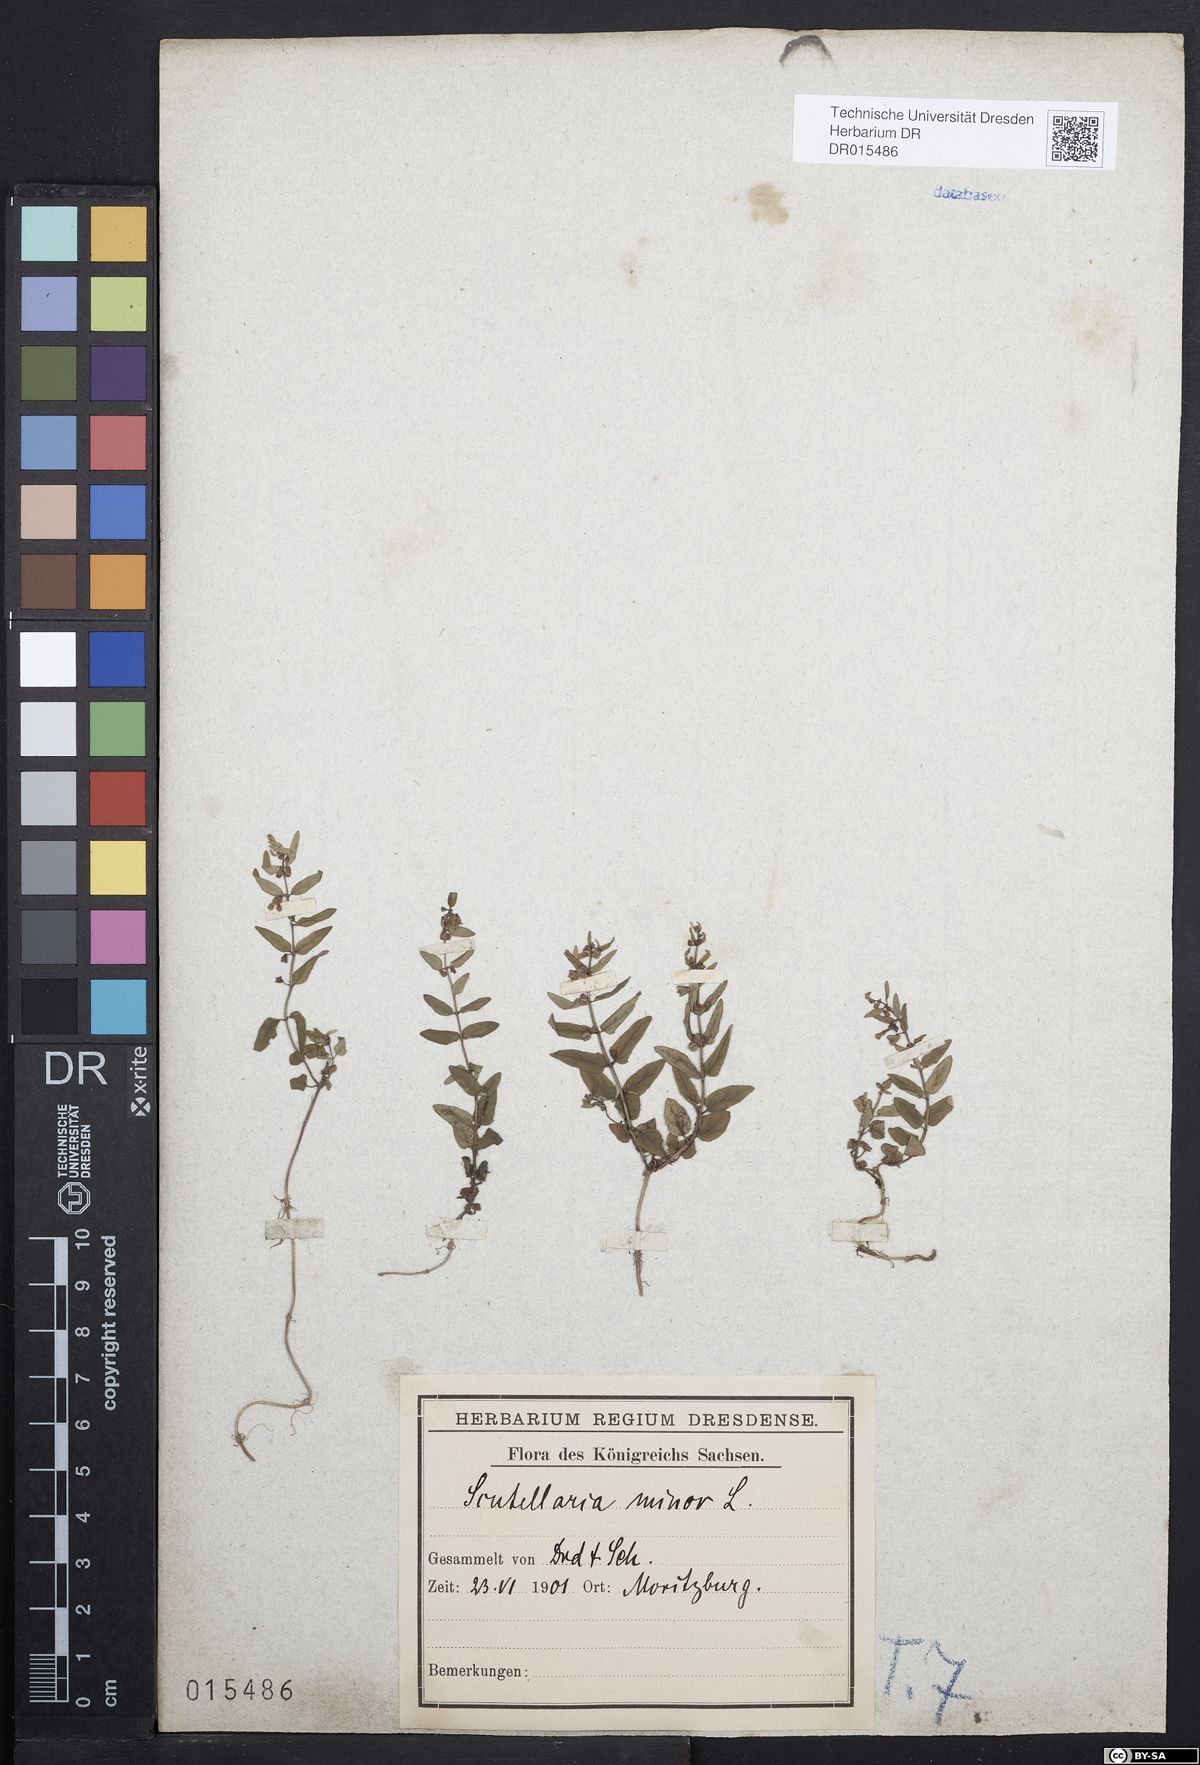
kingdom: Plantae
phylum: Tracheophyta
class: Magnoliopsida
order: Lamiales
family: Lamiaceae
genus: Scutellaria
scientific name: Scutellaria minor
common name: Lesser skullcap
